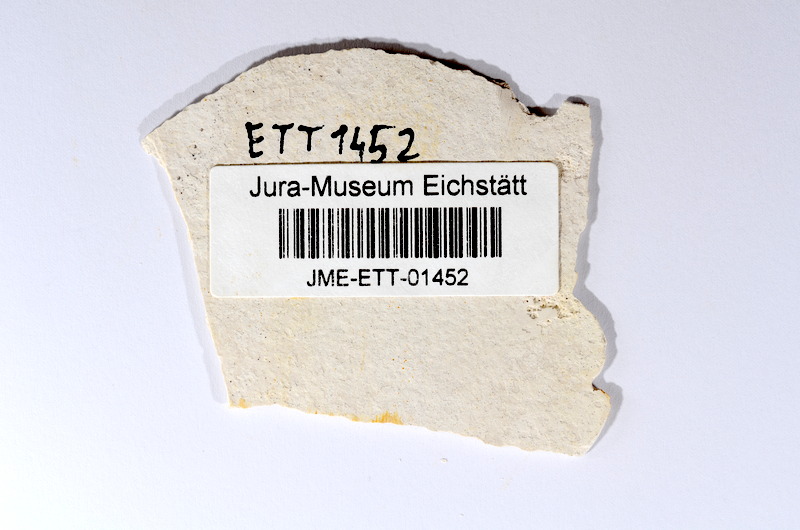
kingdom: Animalia
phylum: Chordata
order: Salmoniformes
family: Orthogonikleithridae
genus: Orthogonikleithrus
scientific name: Orthogonikleithrus hoelli
